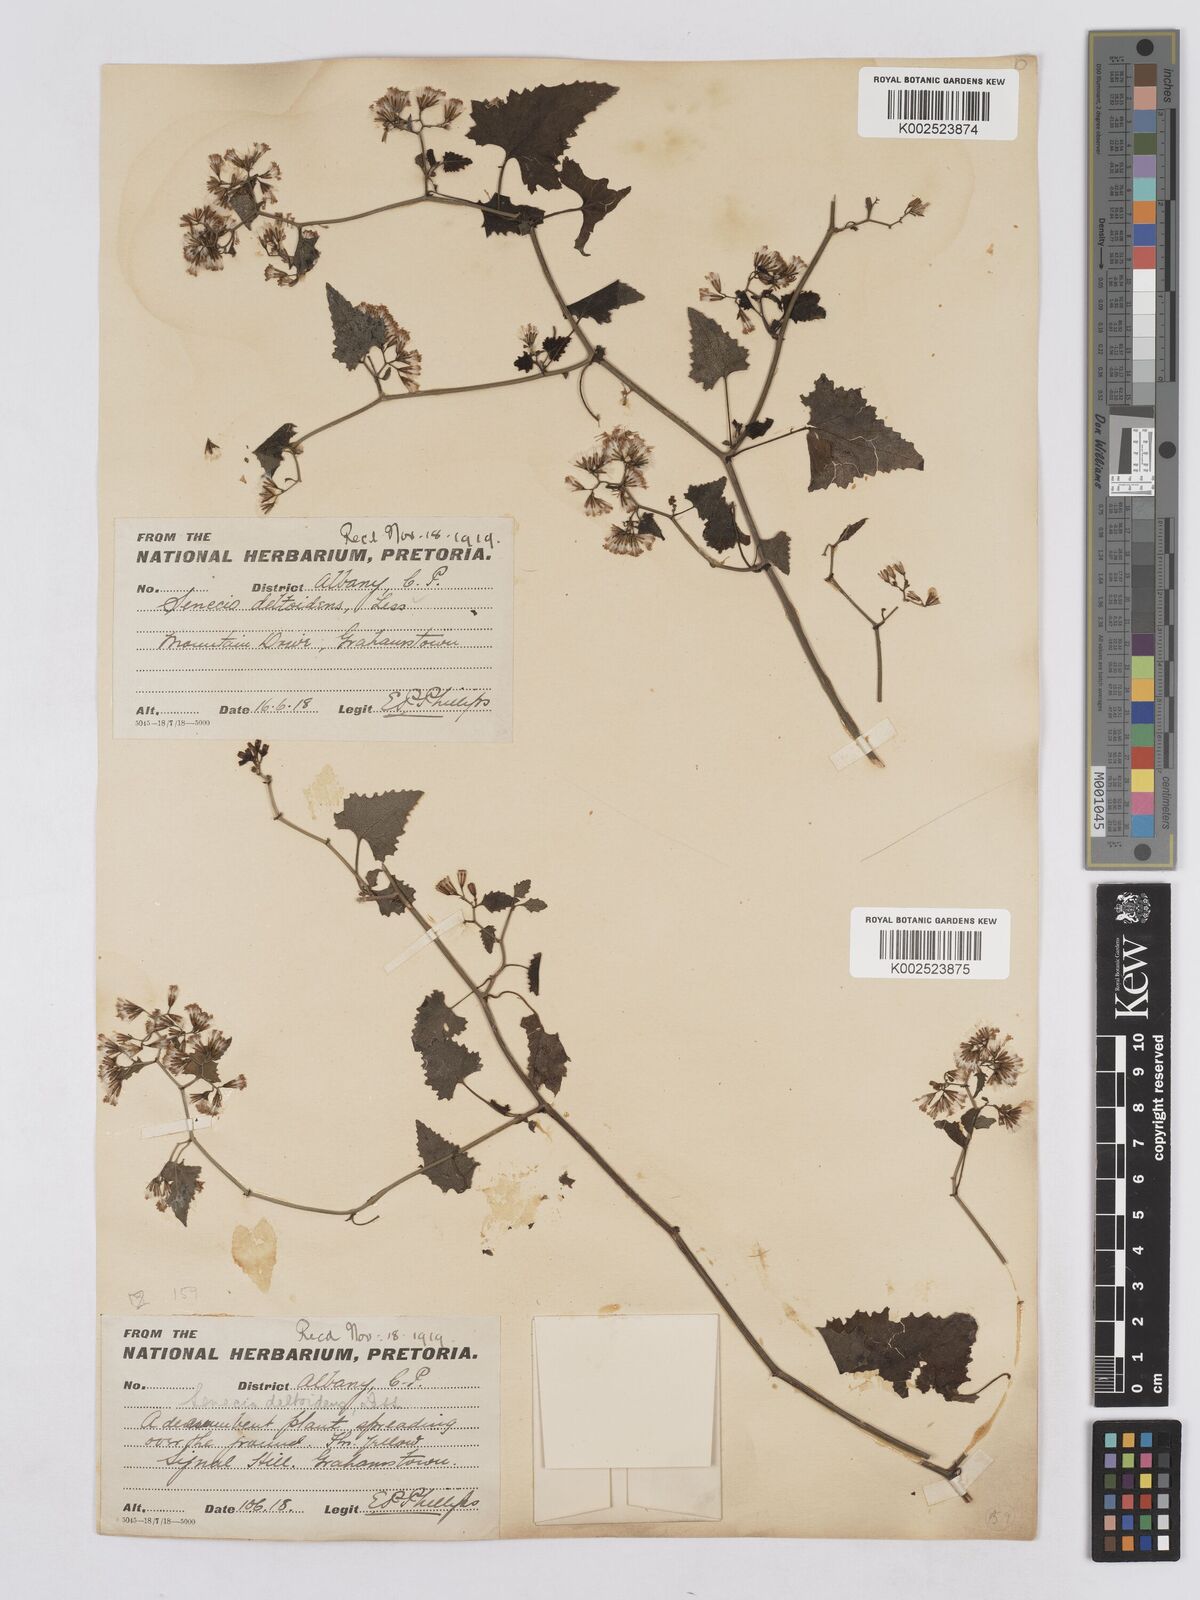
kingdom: Plantae
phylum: Tracheophyta
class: Magnoliopsida
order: Asterales
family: Asteraceae
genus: Senecio
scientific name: Senecio deltoideus
